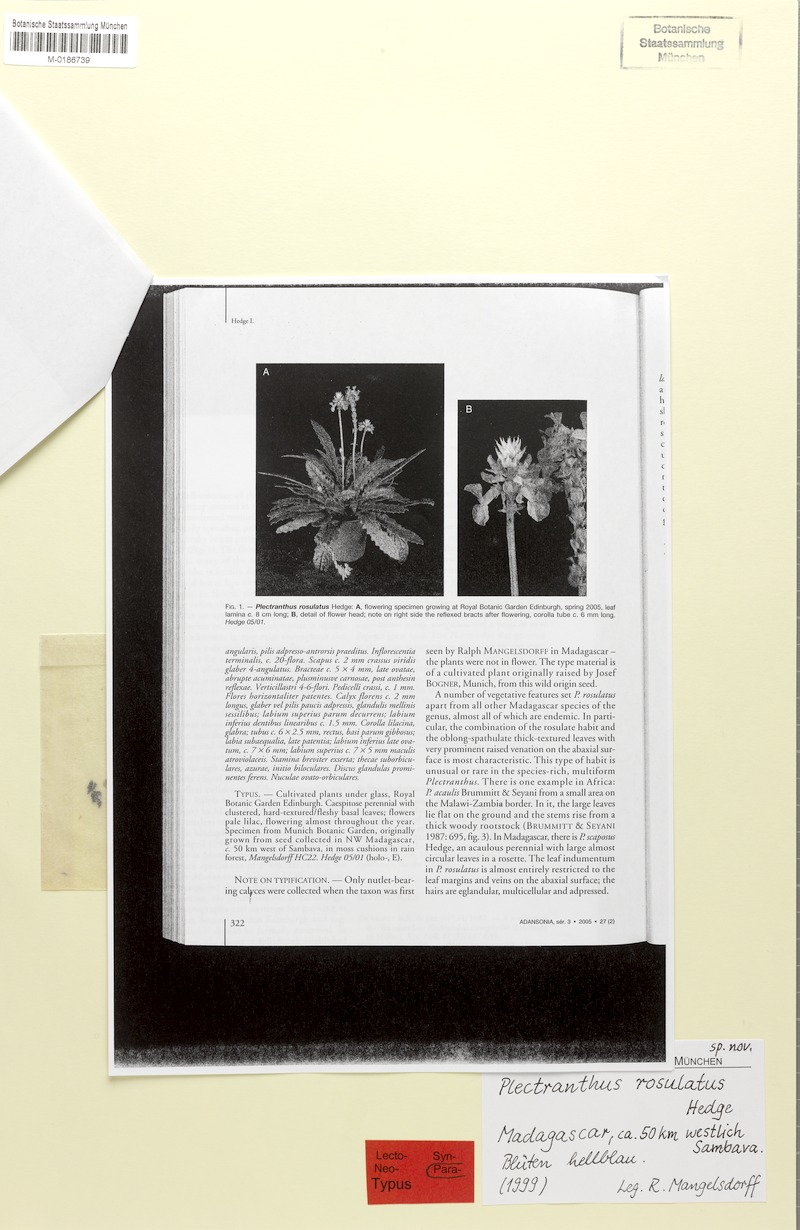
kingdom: Plantae
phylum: Tracheophyta
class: Magnoliopsida
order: Lamiales
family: Lamiaceae
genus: Plectranthus
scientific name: Plectranthus rosulatus
